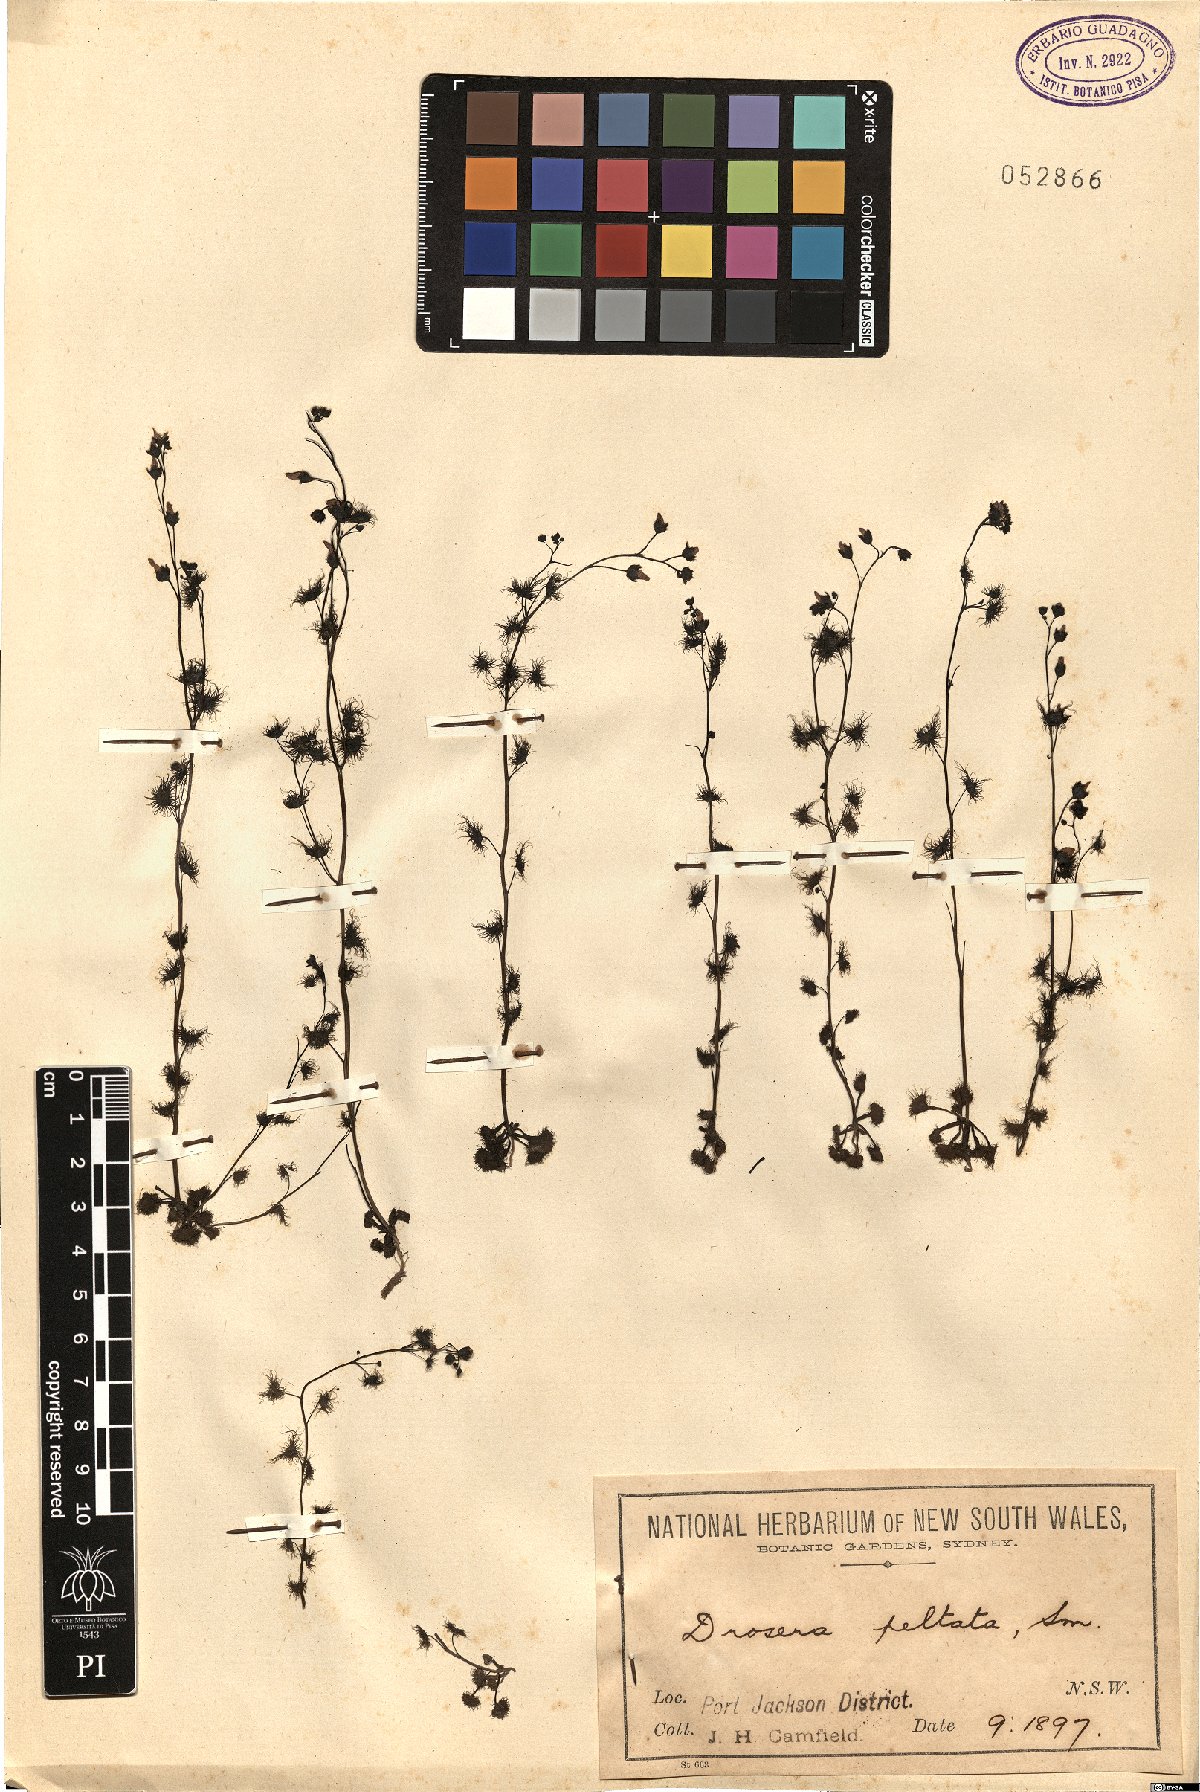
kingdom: Plantae
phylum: Tracheophyta
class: Magnoliopsida
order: Caryophyllales
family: Droseraceae
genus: Drosera
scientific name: Drosera peltata
